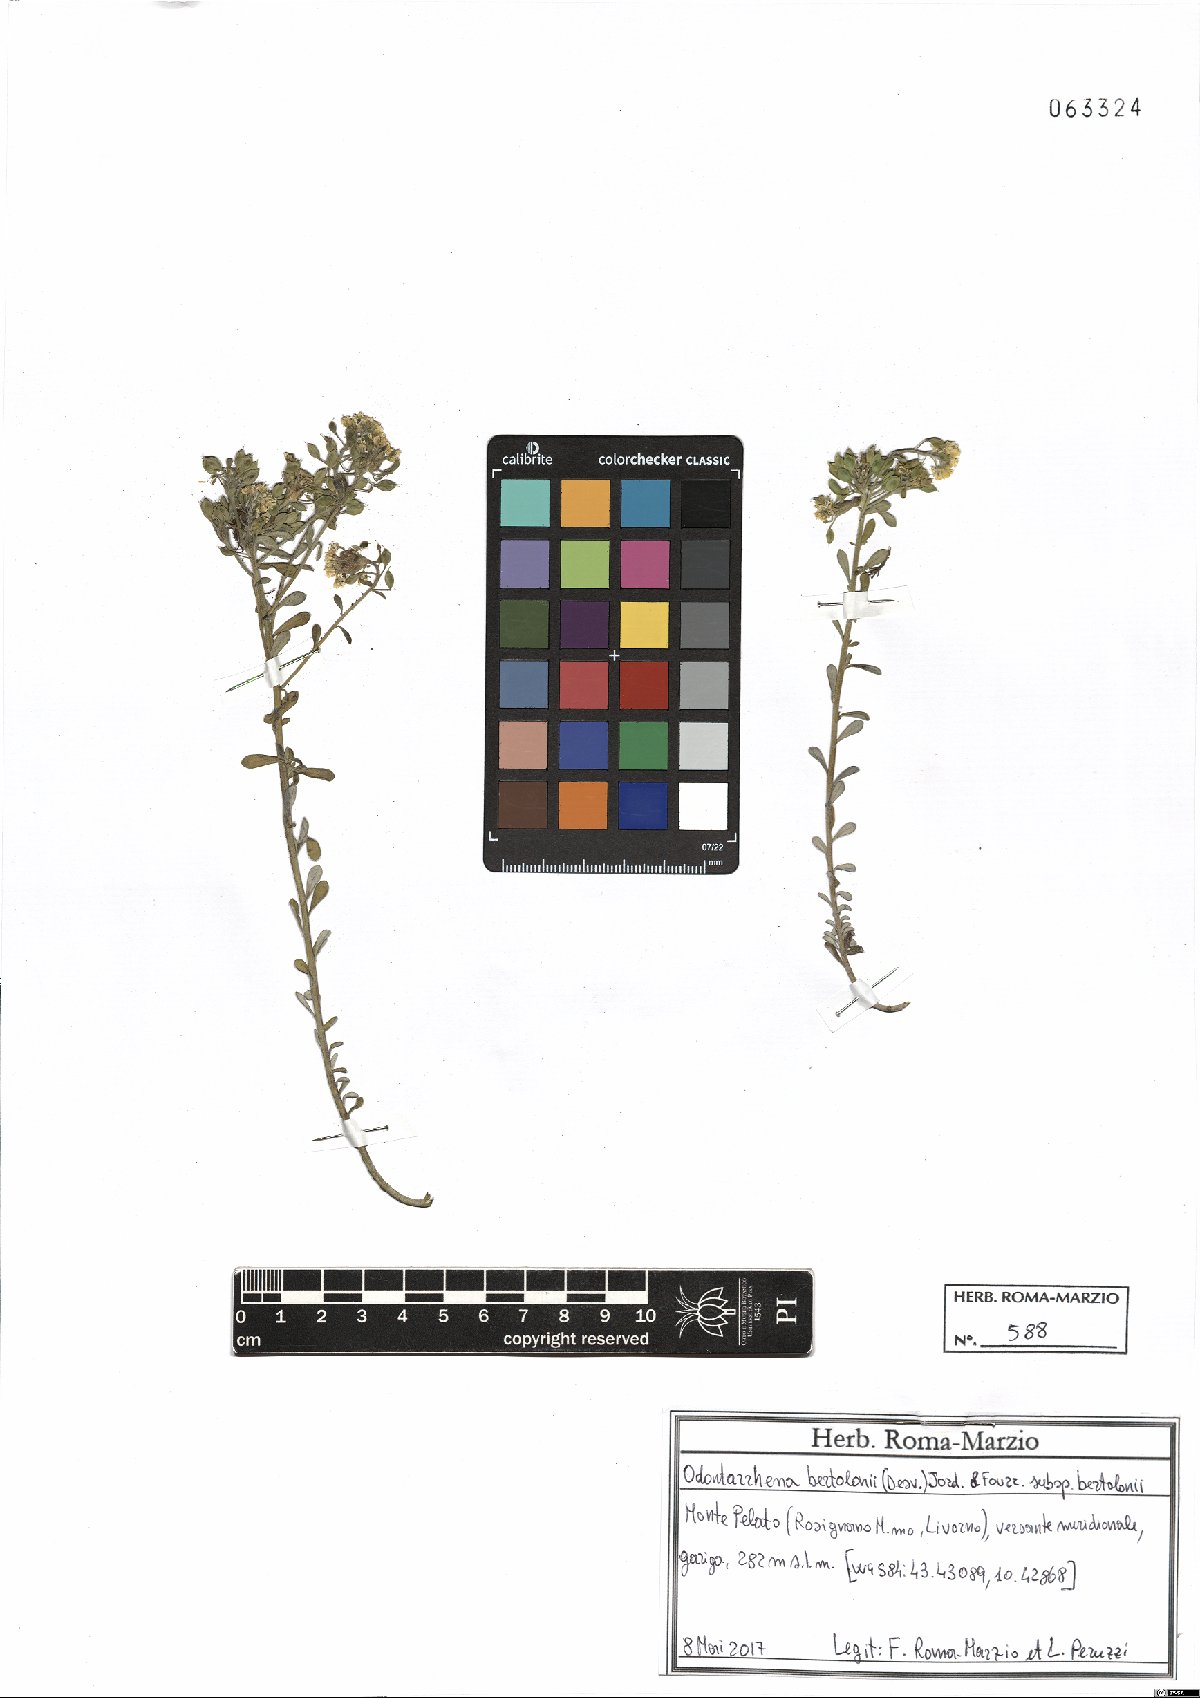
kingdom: Plantae
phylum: Tracheophyta
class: Magnoliopsida
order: Brassicales
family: Brassicaceae
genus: Odontarrhena
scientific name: Odontarrhena bertolonii
